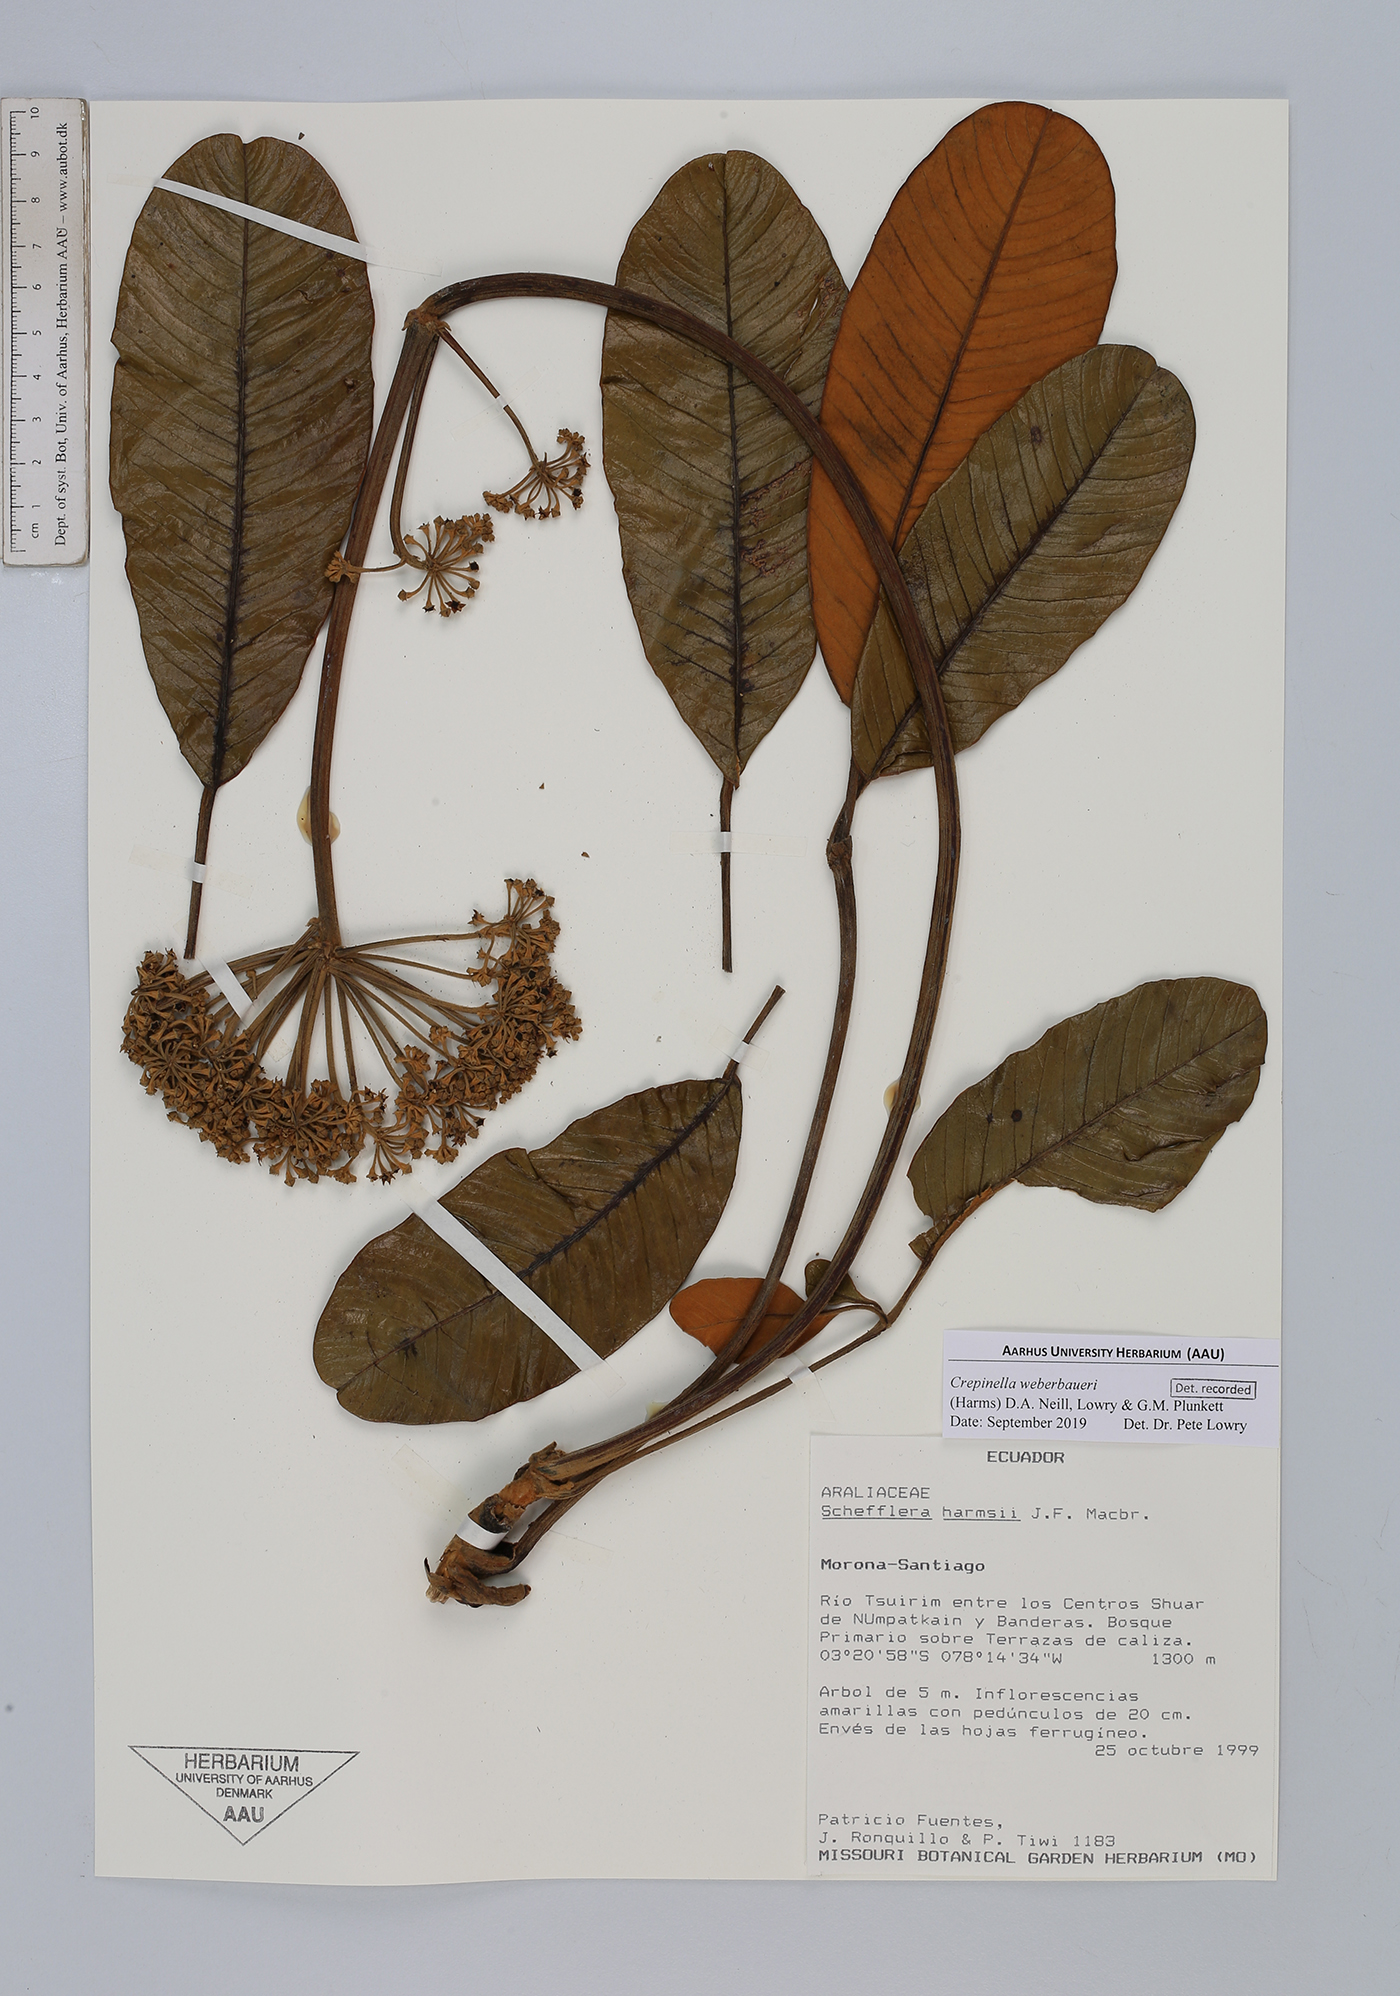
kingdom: Plantae
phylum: Tracheophyta
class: Magnoliopsida
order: Apiales
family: Araliaceae
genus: Crepinella
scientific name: Crepinella weberbaueri
